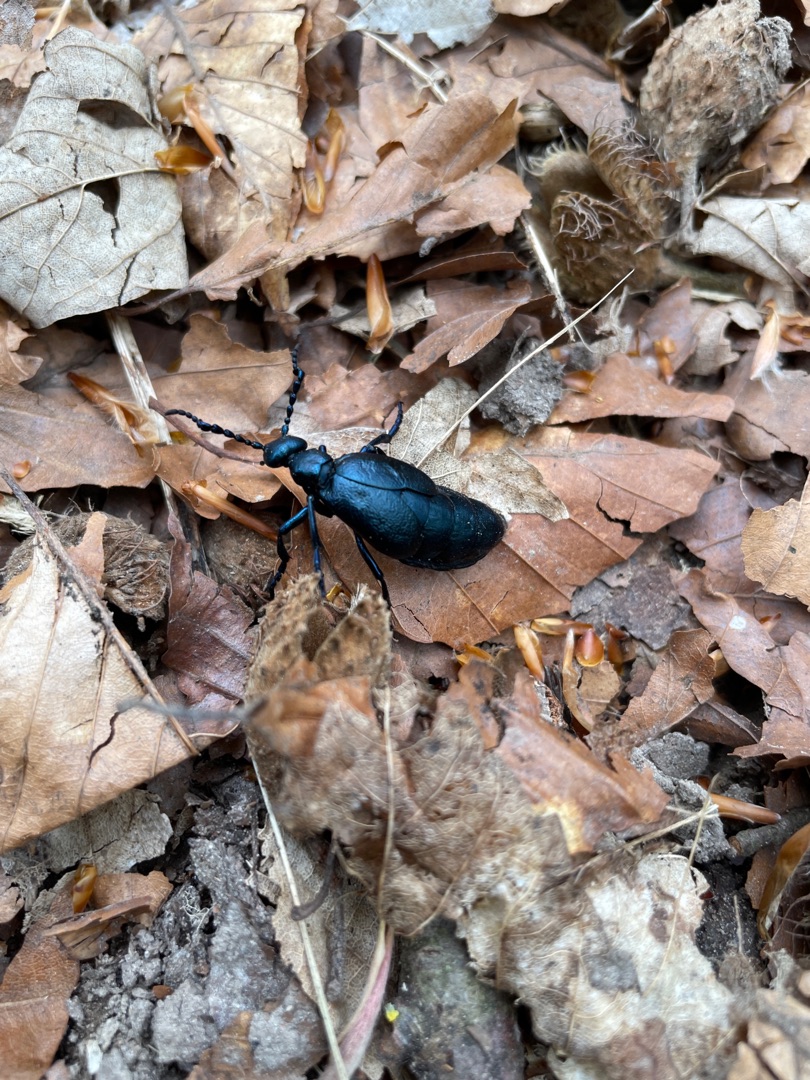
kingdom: Animalia
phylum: Arthropoda
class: Insecta
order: Coleoptera
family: Meloidae
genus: Meloe
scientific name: Meloe violaceus
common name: Blå oliebille
